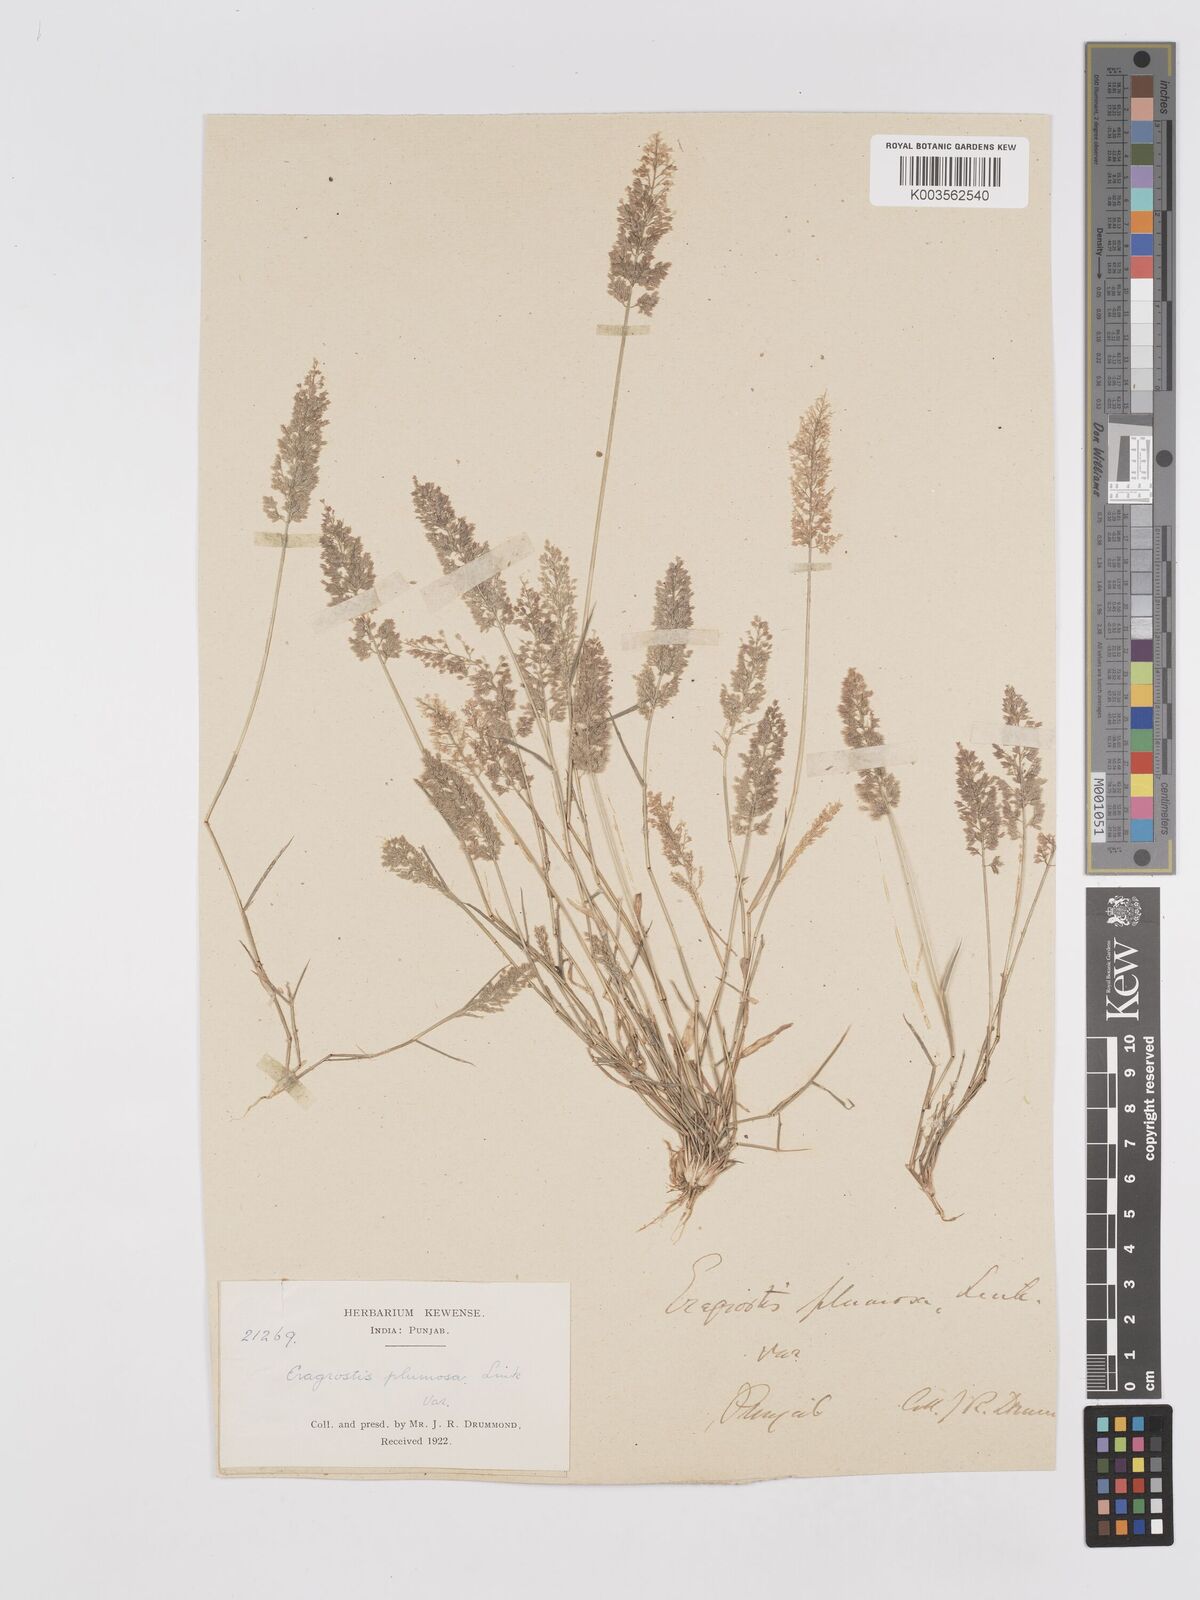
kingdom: Plantae
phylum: Tracheophyta
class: Liliopsida
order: Poales
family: Poaceae
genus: Eragrostis
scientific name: Eragrostis tenella
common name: Japanese lovegrass
